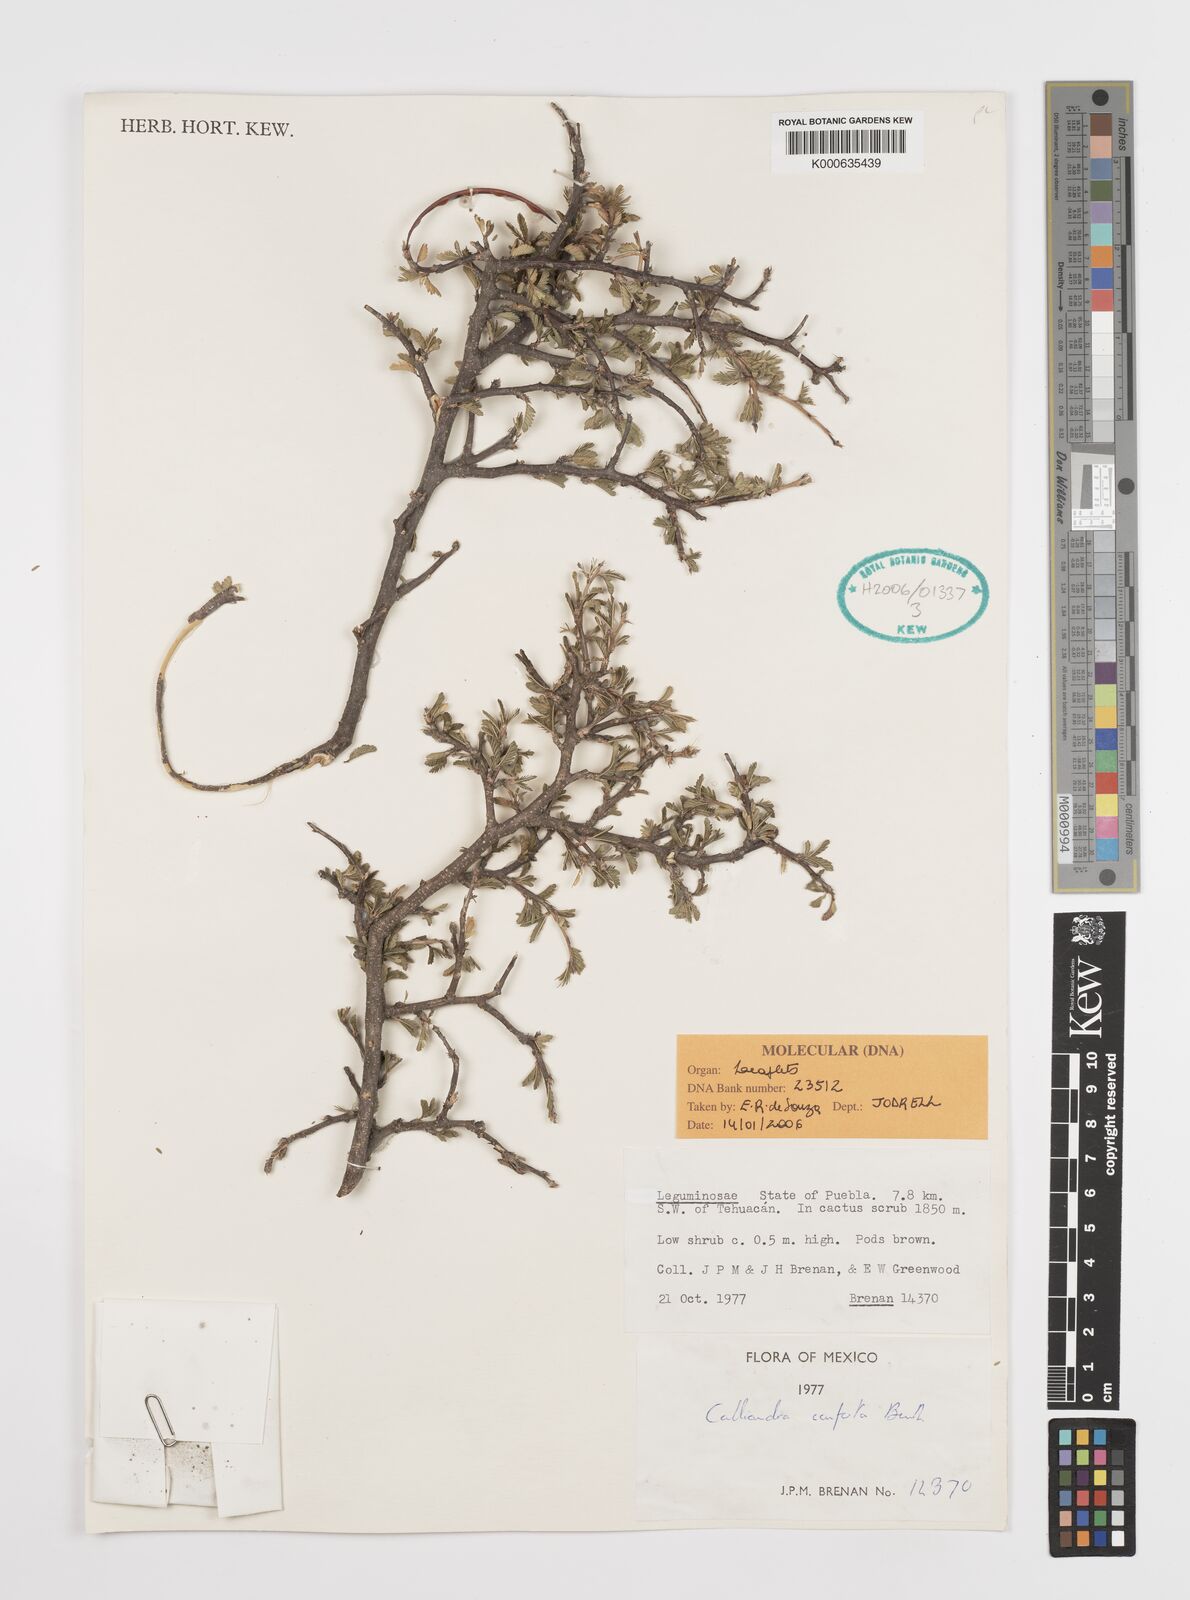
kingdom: Plantae
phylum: Tracheophyta
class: Magnoliopsida
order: Fabales
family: Fabaceae
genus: Calliandra
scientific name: Calliandra conferta
